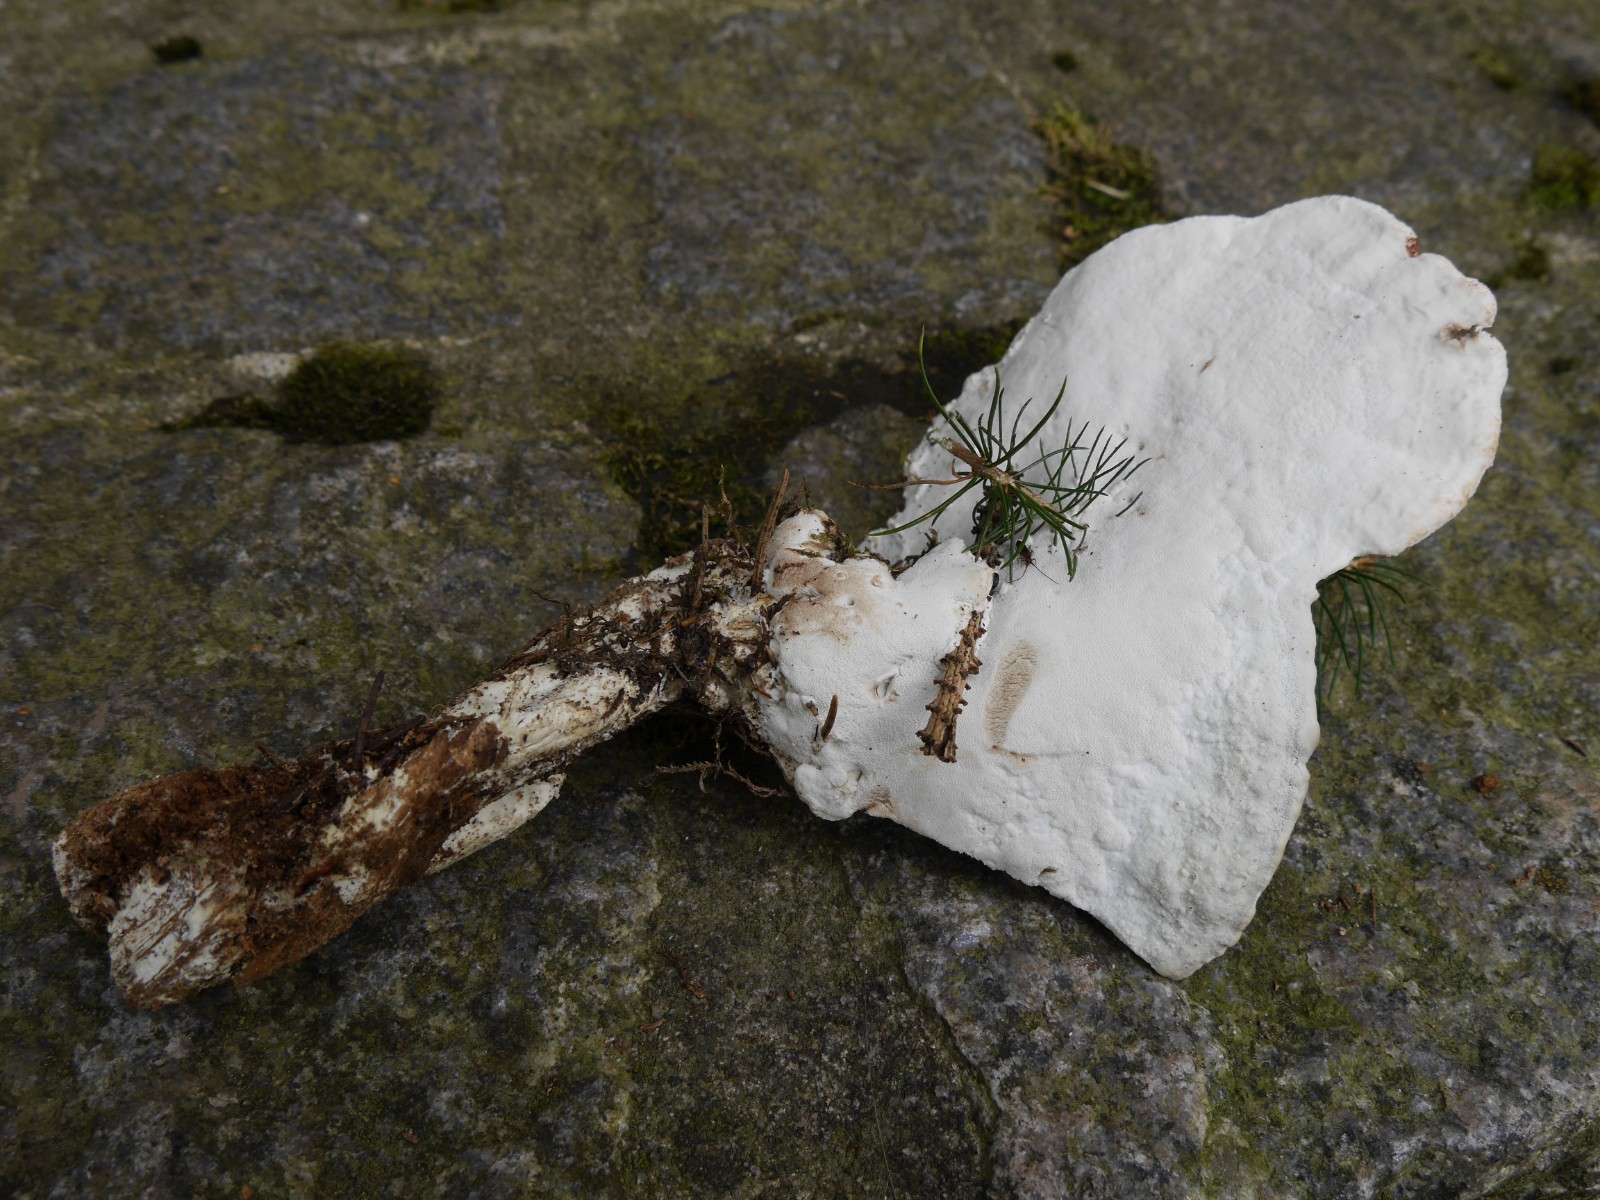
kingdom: Fungi
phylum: Basidiomycota
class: Agaricomycetes
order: Polyporales
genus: Calcipostia
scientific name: Calcipostia guttulata
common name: dråbe-kødporesvamp
